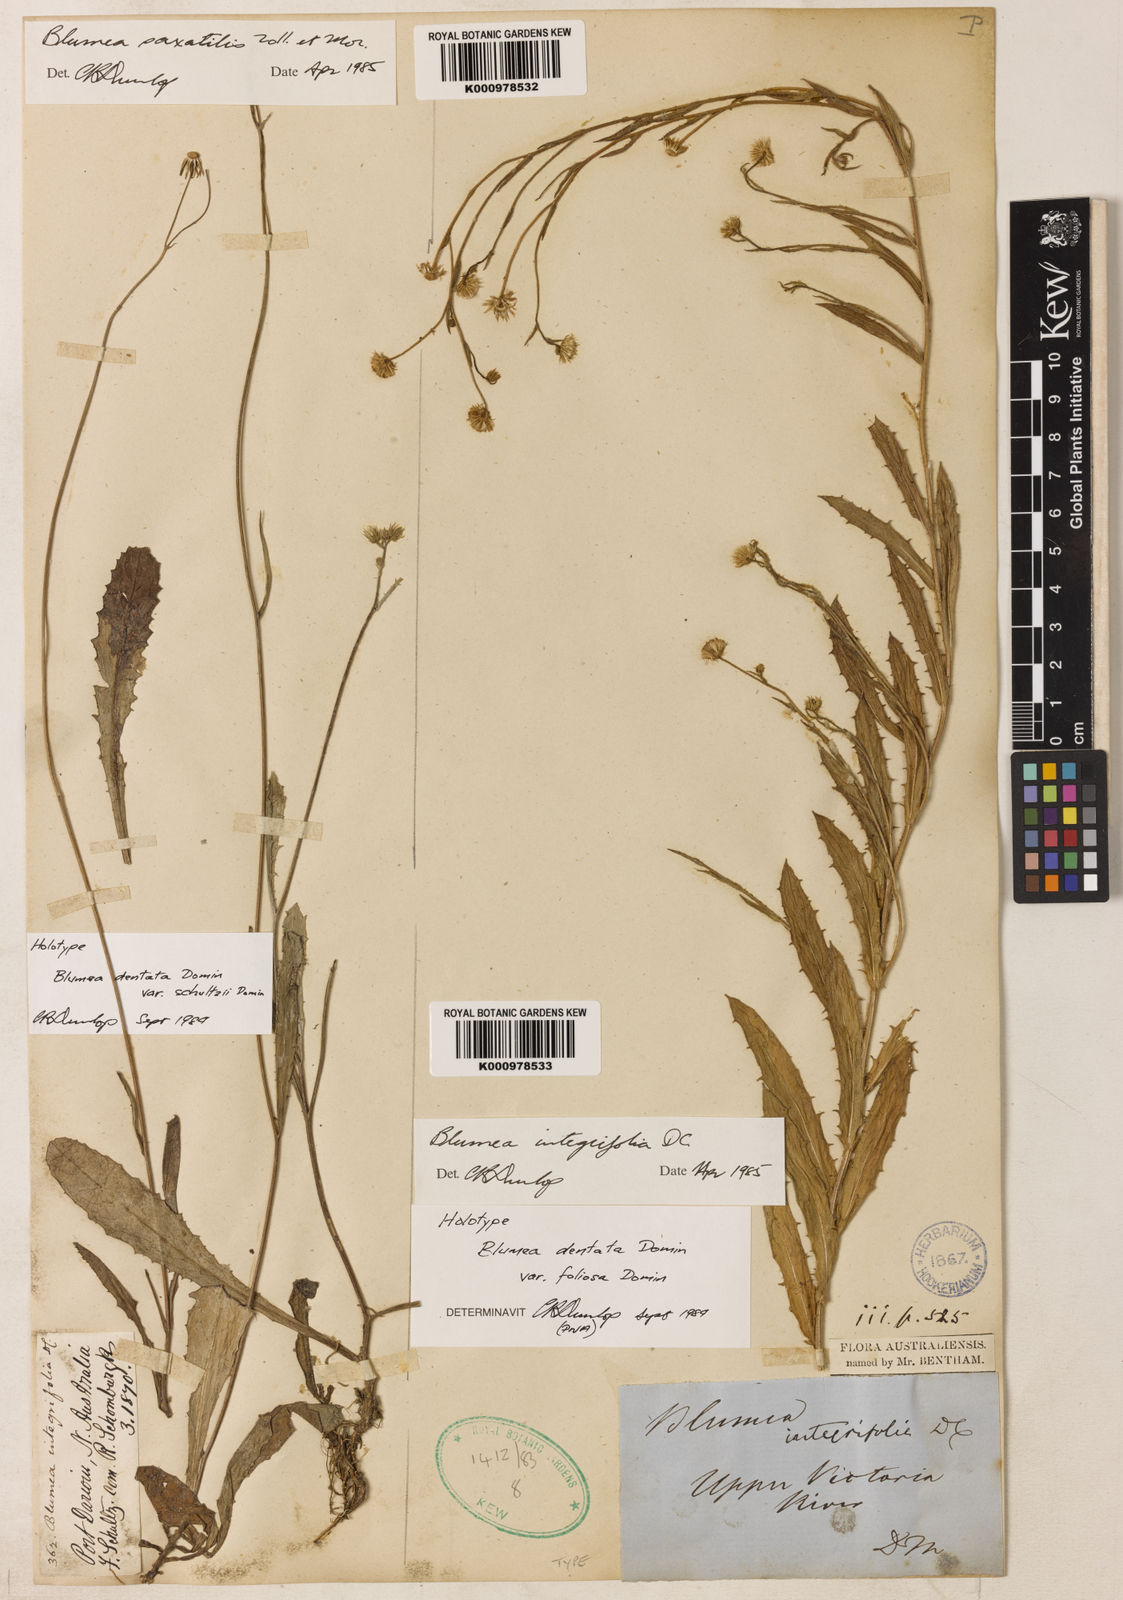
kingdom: Plantae
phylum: Tracheophyta
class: Magnoliopsida
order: Asterales
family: Asteraceae
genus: Blumea
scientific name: Blumea integrifolia
